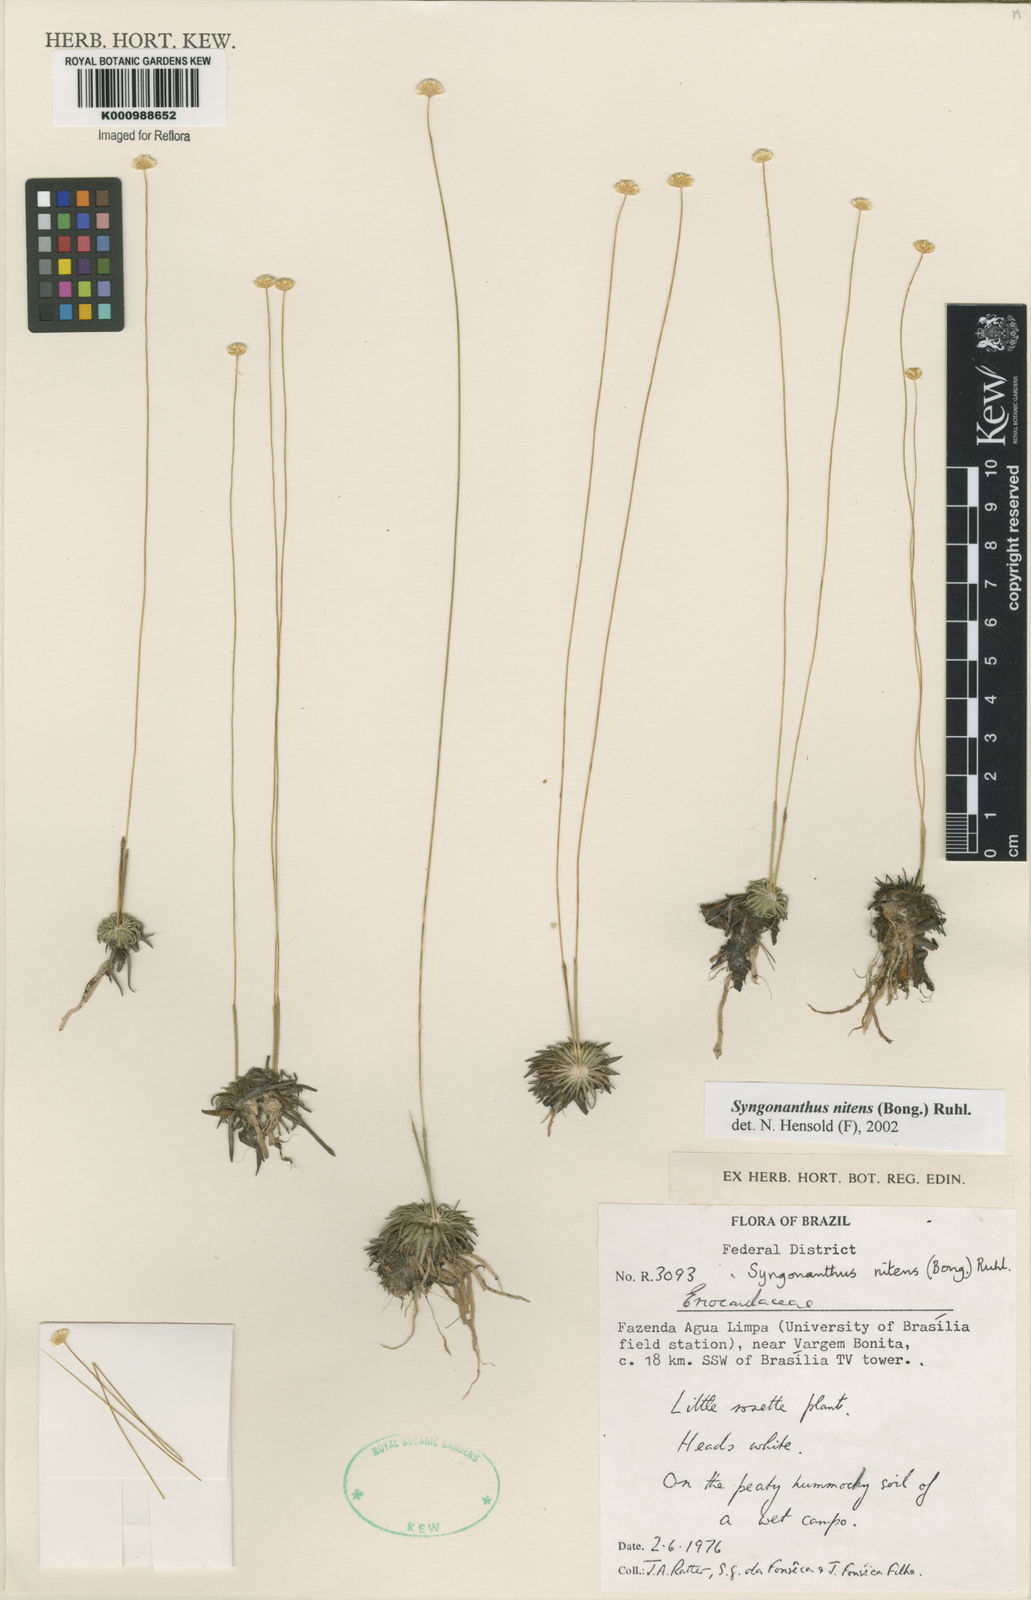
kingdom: Plantae
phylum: Tracheophyta
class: Liliopsida
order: Poales
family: Eriocaulaceae
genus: Syngonanthus
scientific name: Syngonanthus nitens
